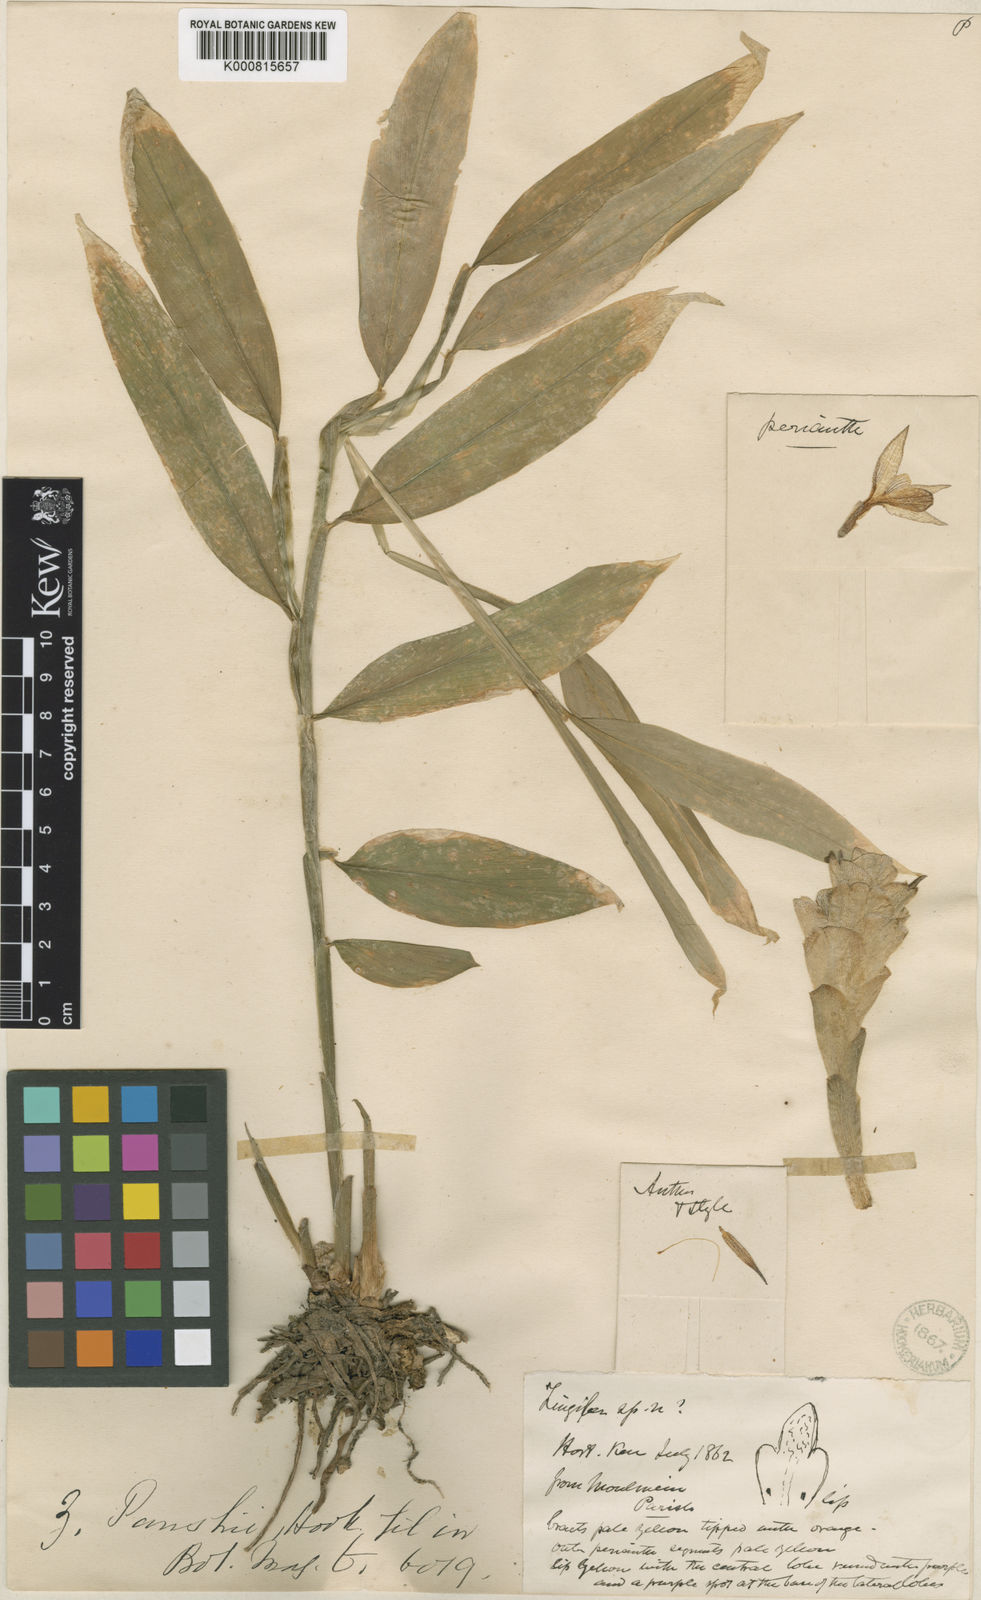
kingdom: Plantae
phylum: Tracheophyta
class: Liliopsida
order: Zingiberales
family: Zingiberaceae
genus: Zingiber
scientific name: Zingiber parishii
